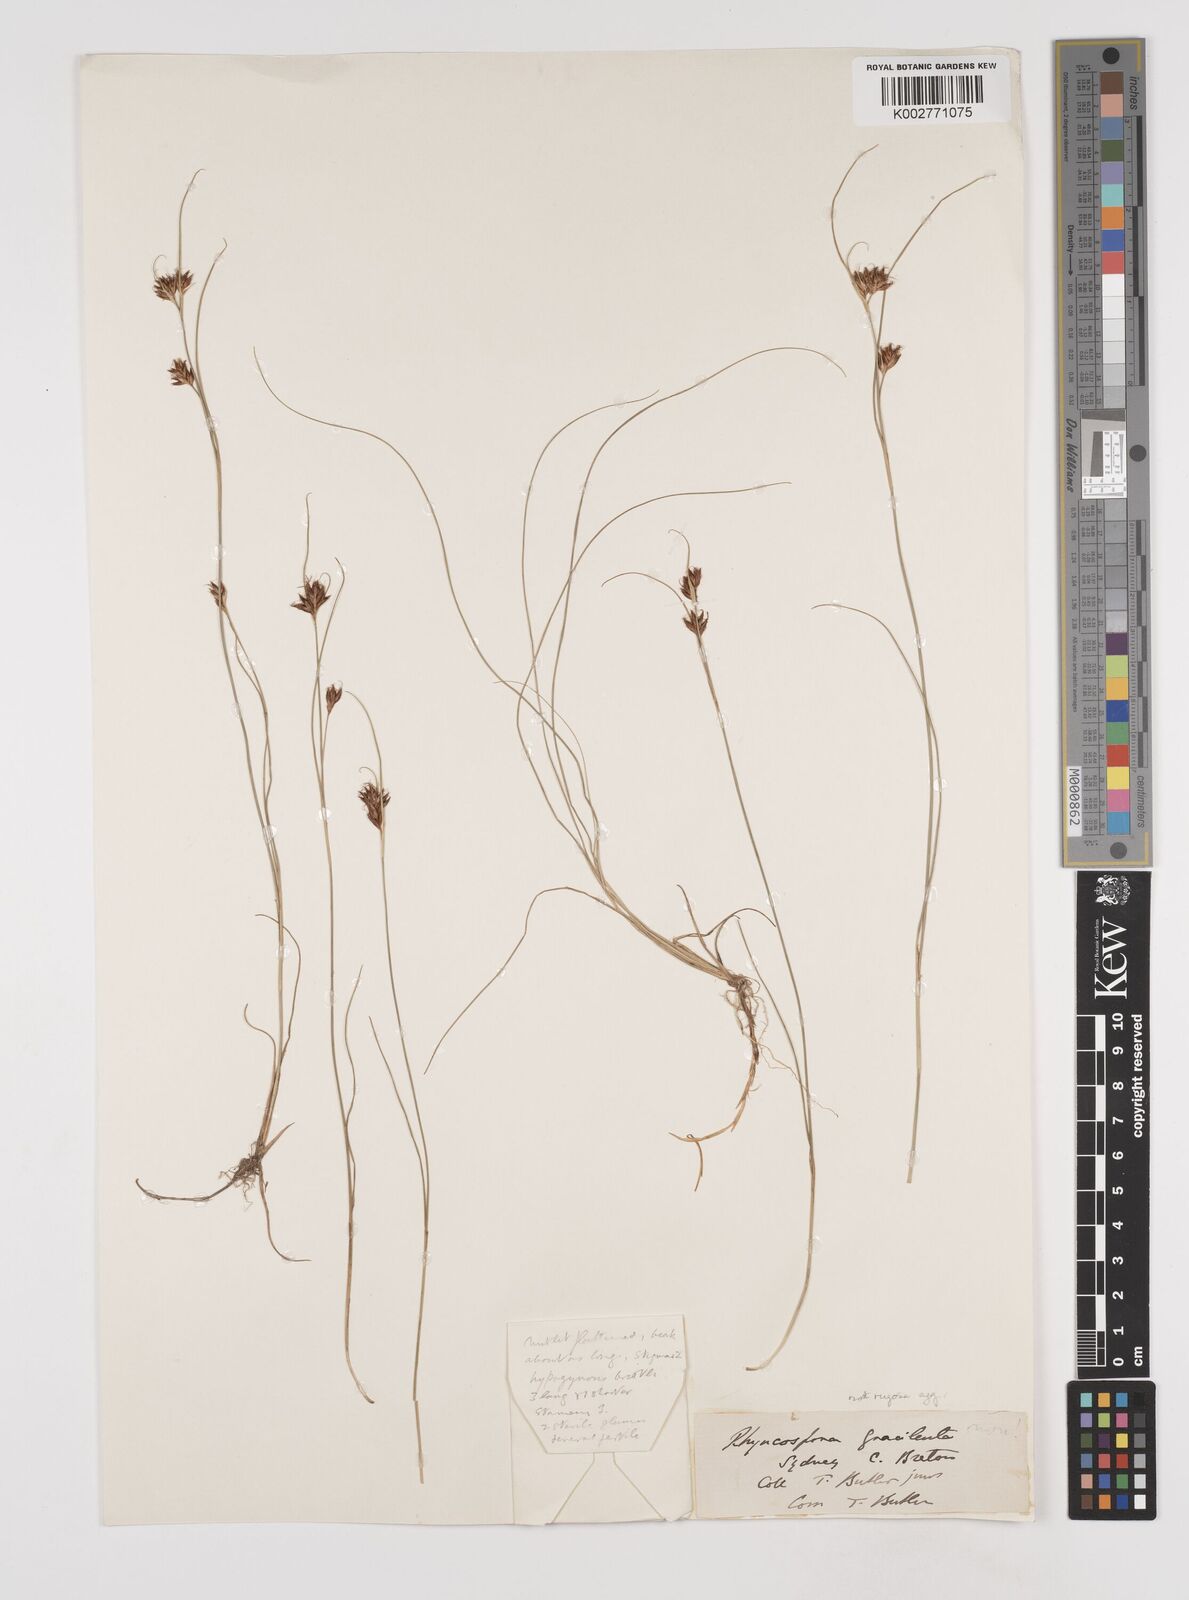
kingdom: Plantae
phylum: Tracheophyta
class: Liliopsida
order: Poales
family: Cyperaceae
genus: Rhynchospora
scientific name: Rhynchospora rugosa
